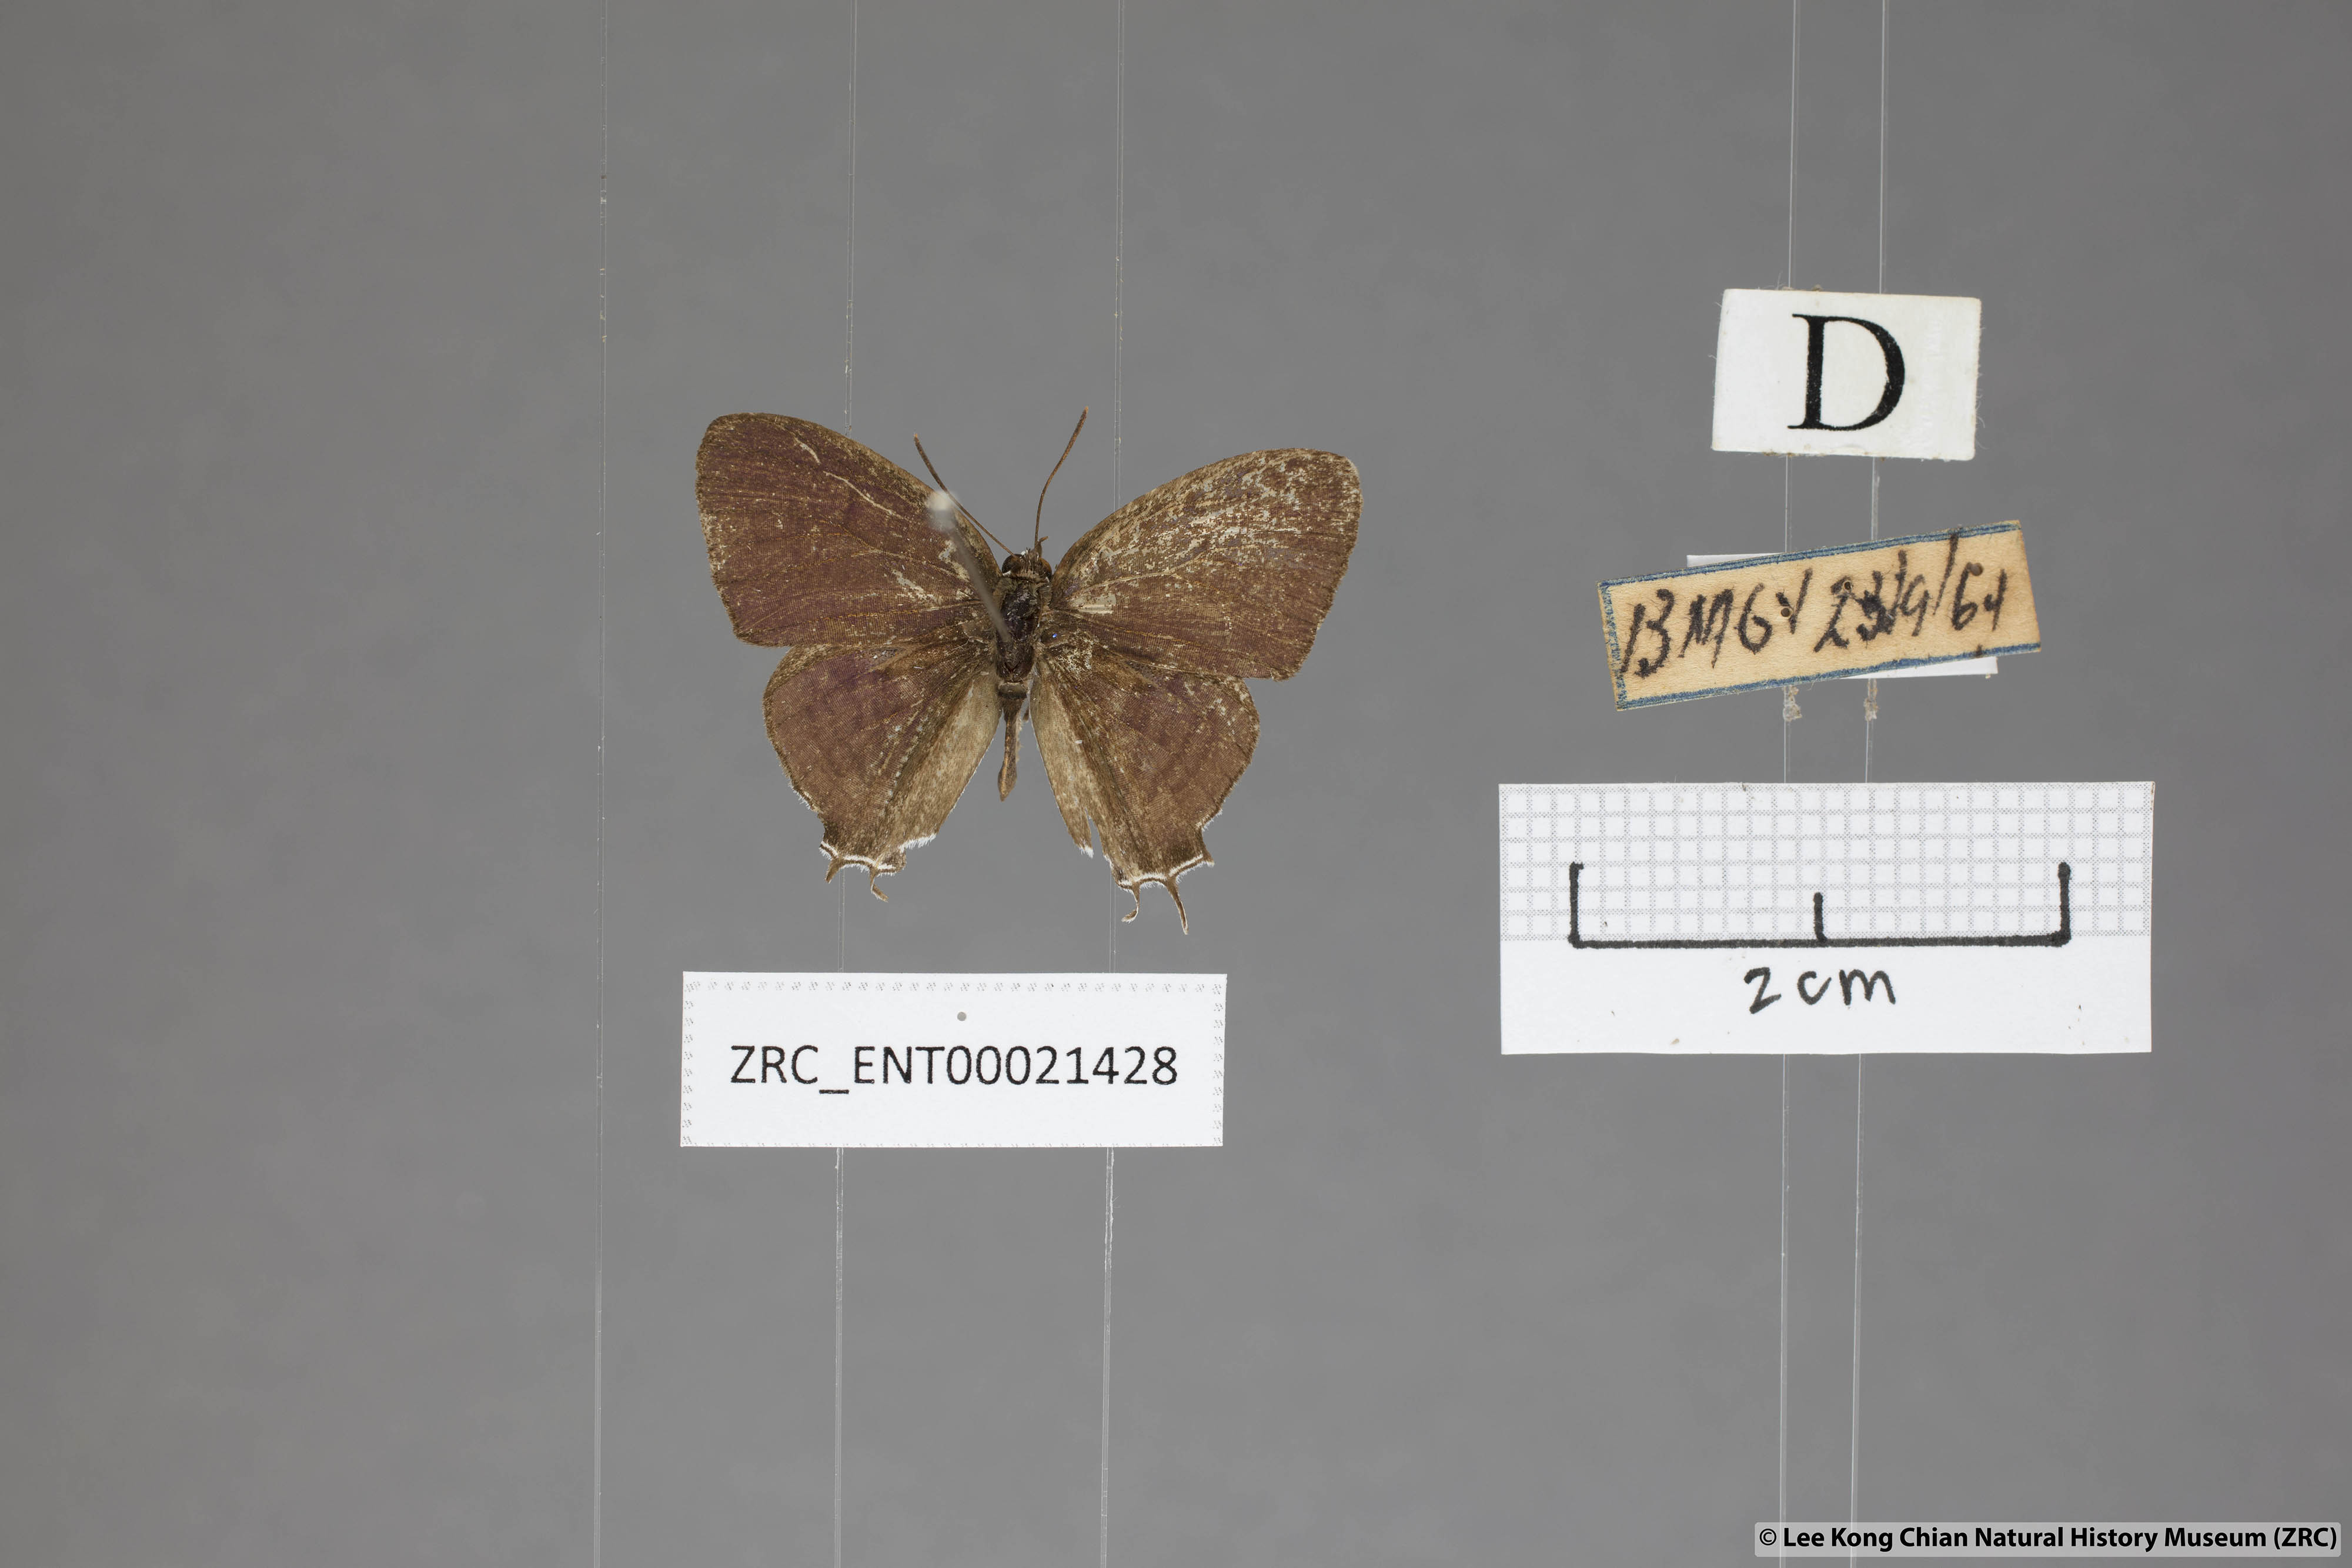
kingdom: Animalia
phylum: Arthropoda
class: Insecta
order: Lepidoptera
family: Lycaenidae
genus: Drupadia
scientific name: Drupadia theda
